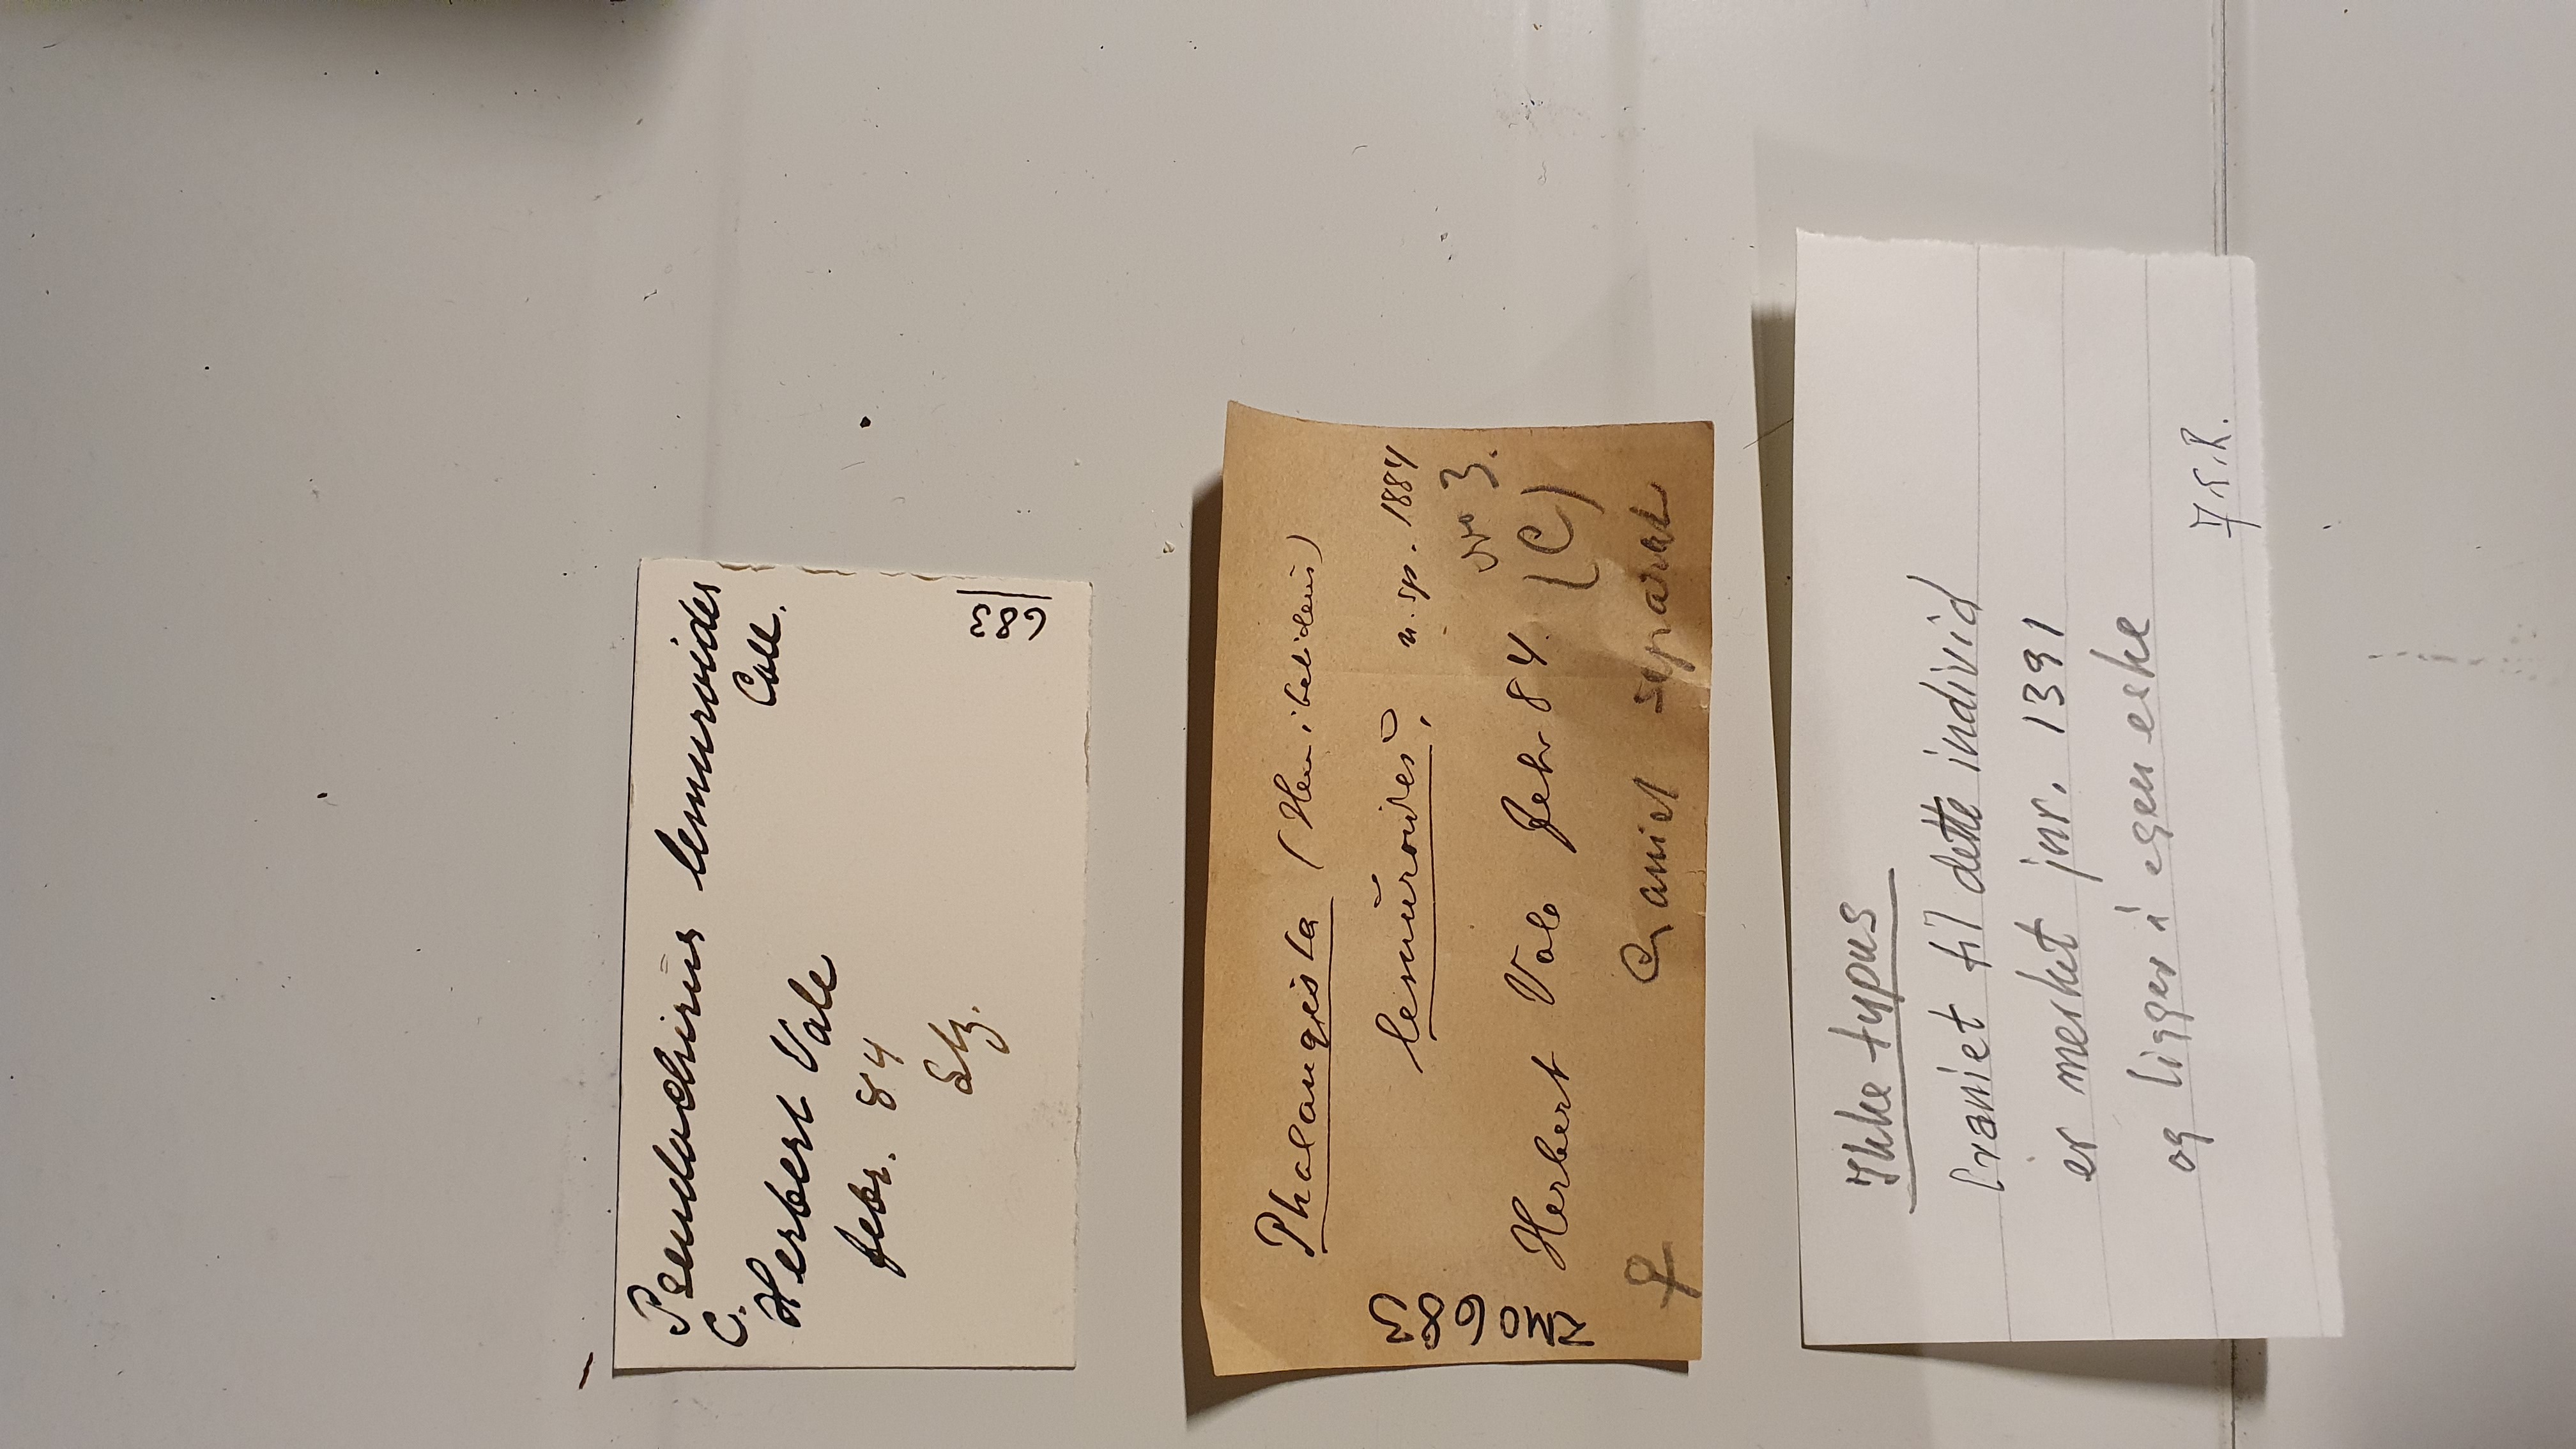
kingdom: Animalia
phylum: Chordata
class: Mammalia
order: Diprotodontia
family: Pseudocheiridae
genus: Hemibelideus
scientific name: Hemibelideus lemuroides
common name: Lemur-like ringtail
